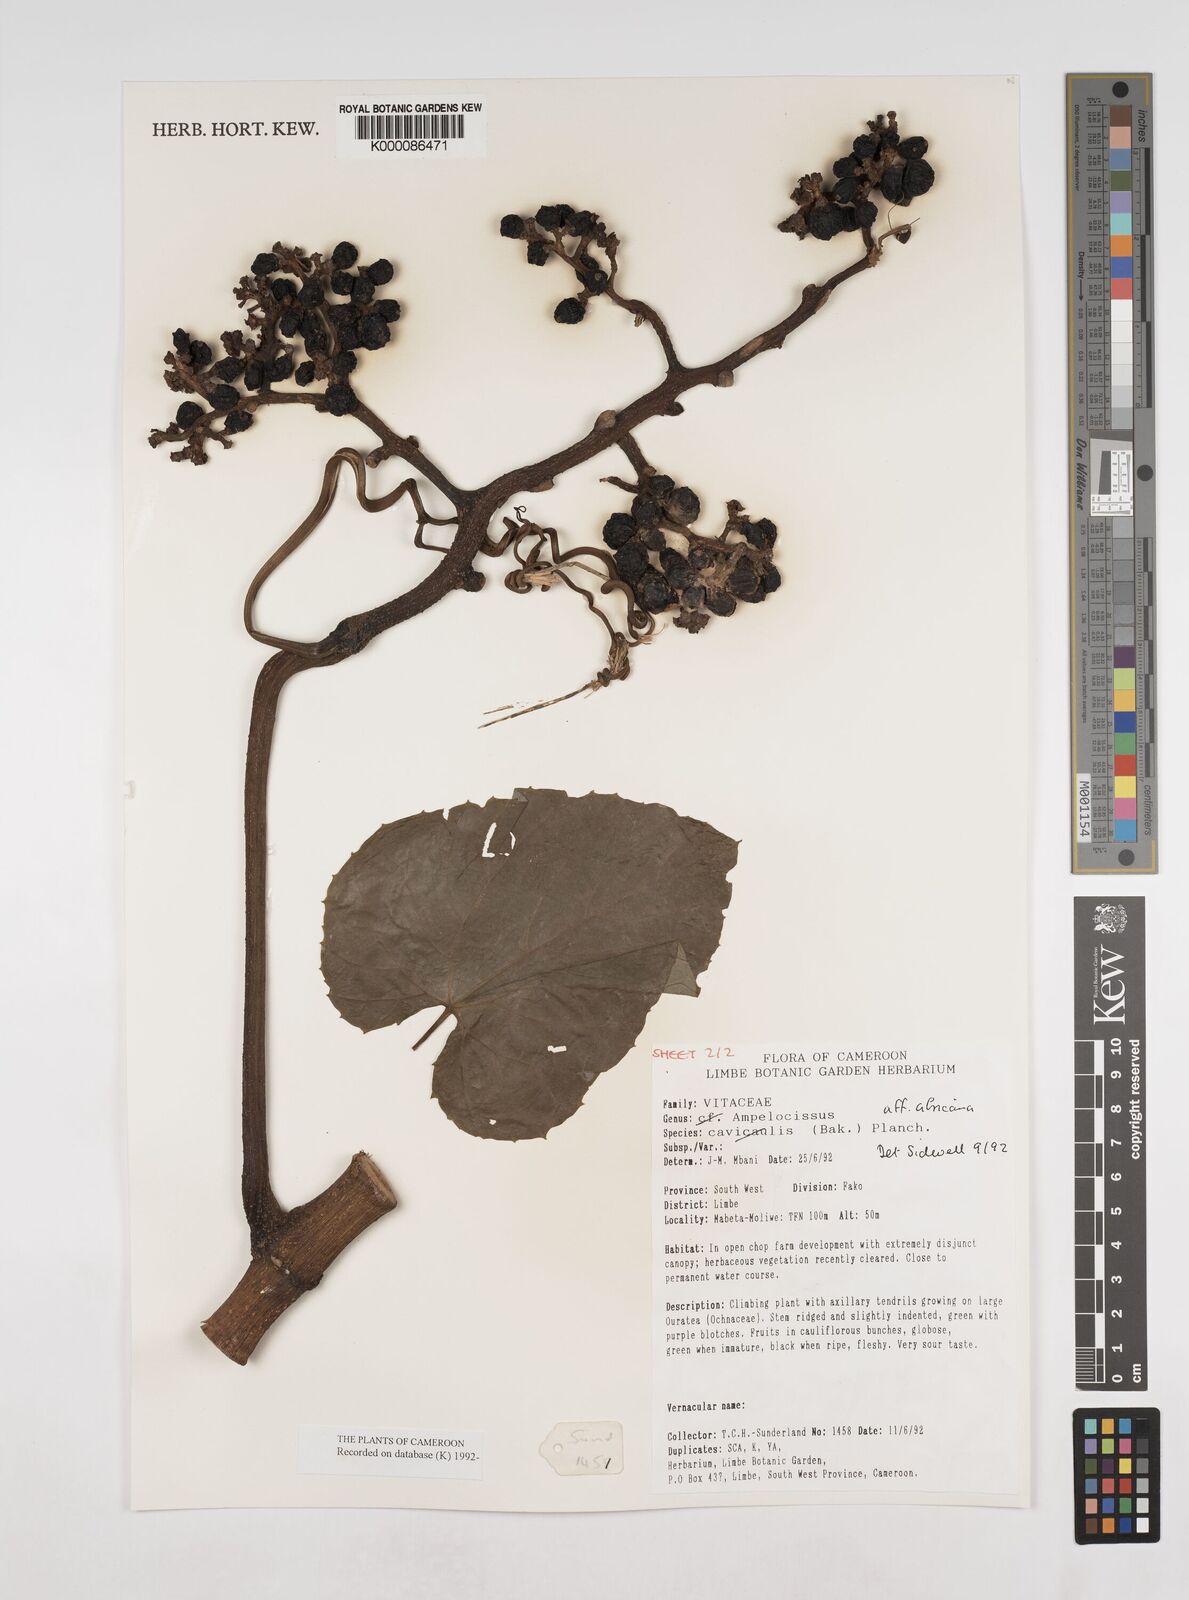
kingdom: Plantae
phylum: Tracheophyta
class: Magnoliopsida
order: Vitales
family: Vitaceae
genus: Ampelocissus
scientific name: Ampelocissus africana
